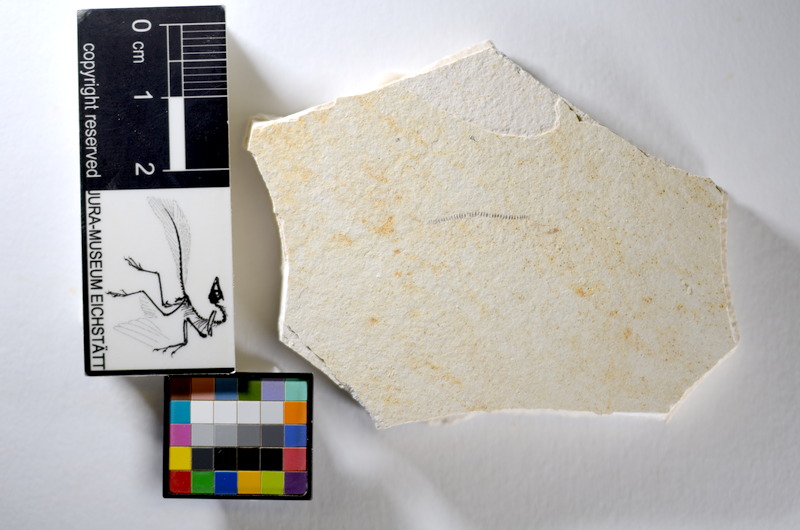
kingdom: Animalia
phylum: Chordata
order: Salmoniformes
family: Orthogonikleithridae
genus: Orthogonikleithrus
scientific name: Orthogonikleithrus hoelli
